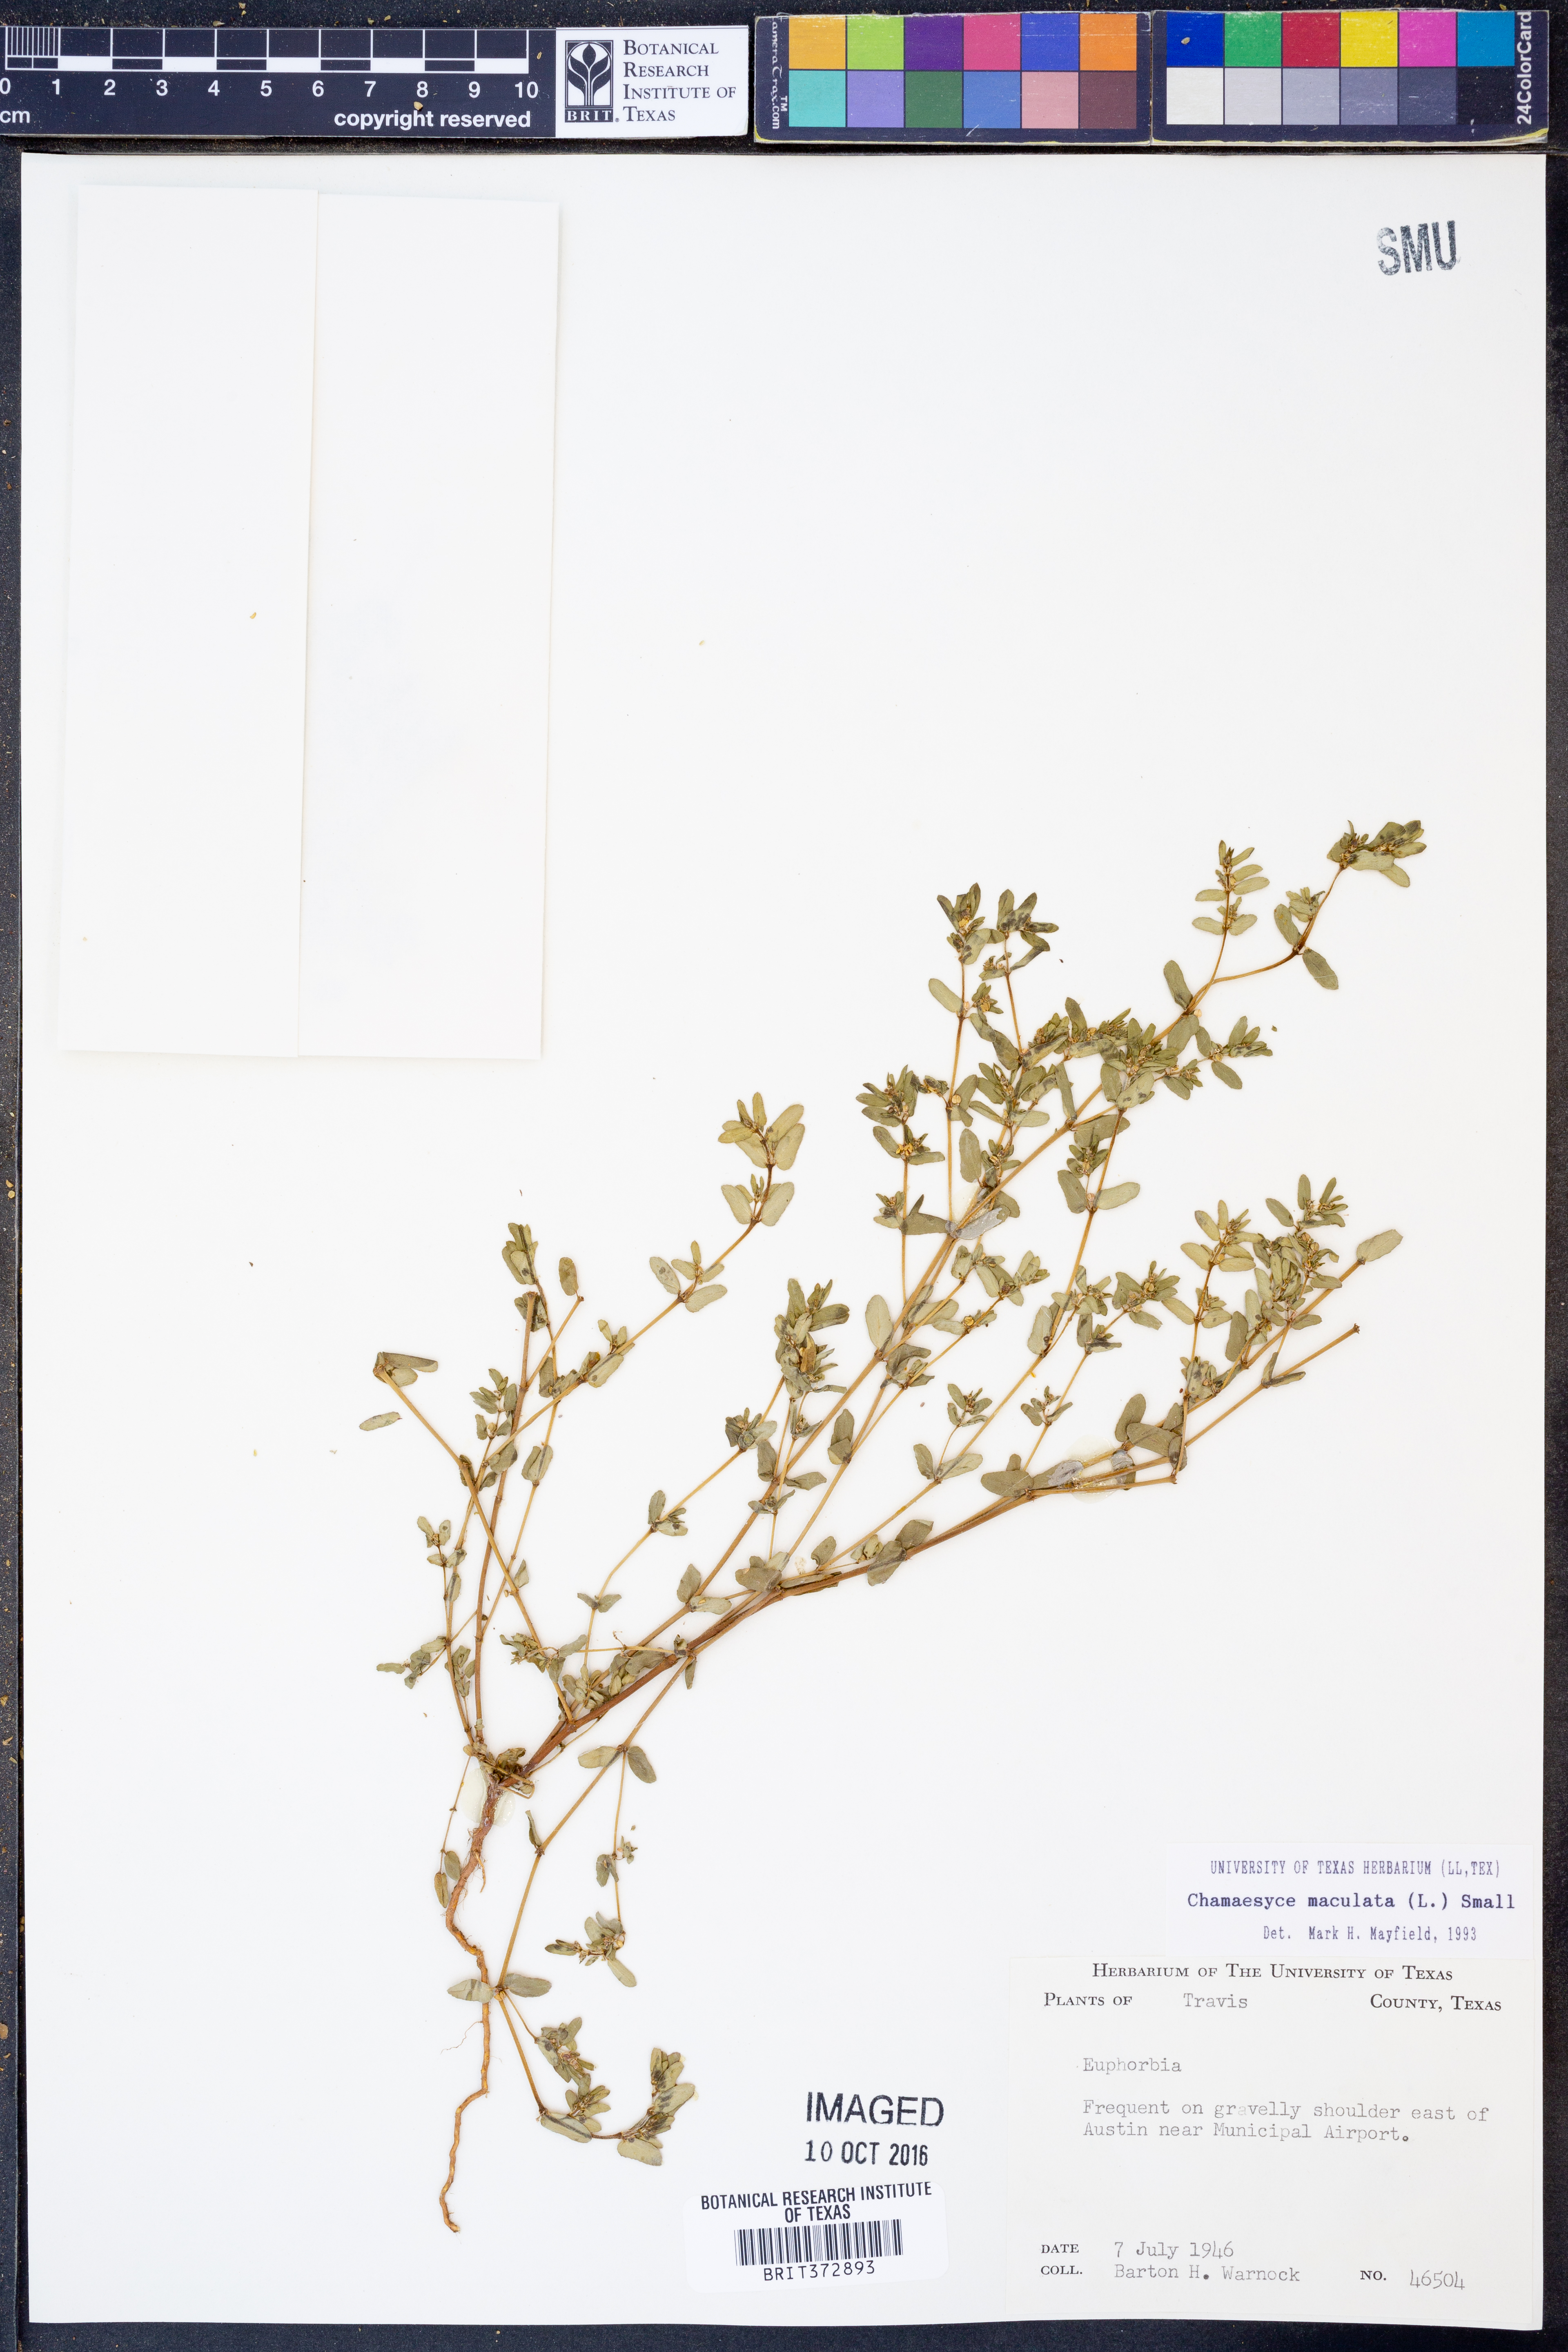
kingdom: Plantae
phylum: Tracheophyta
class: Magnoliopsida
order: Malpighiales
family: Euphorbiaceae
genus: Euphorbia
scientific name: Euphorbia maculata
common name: Spotted spurge
